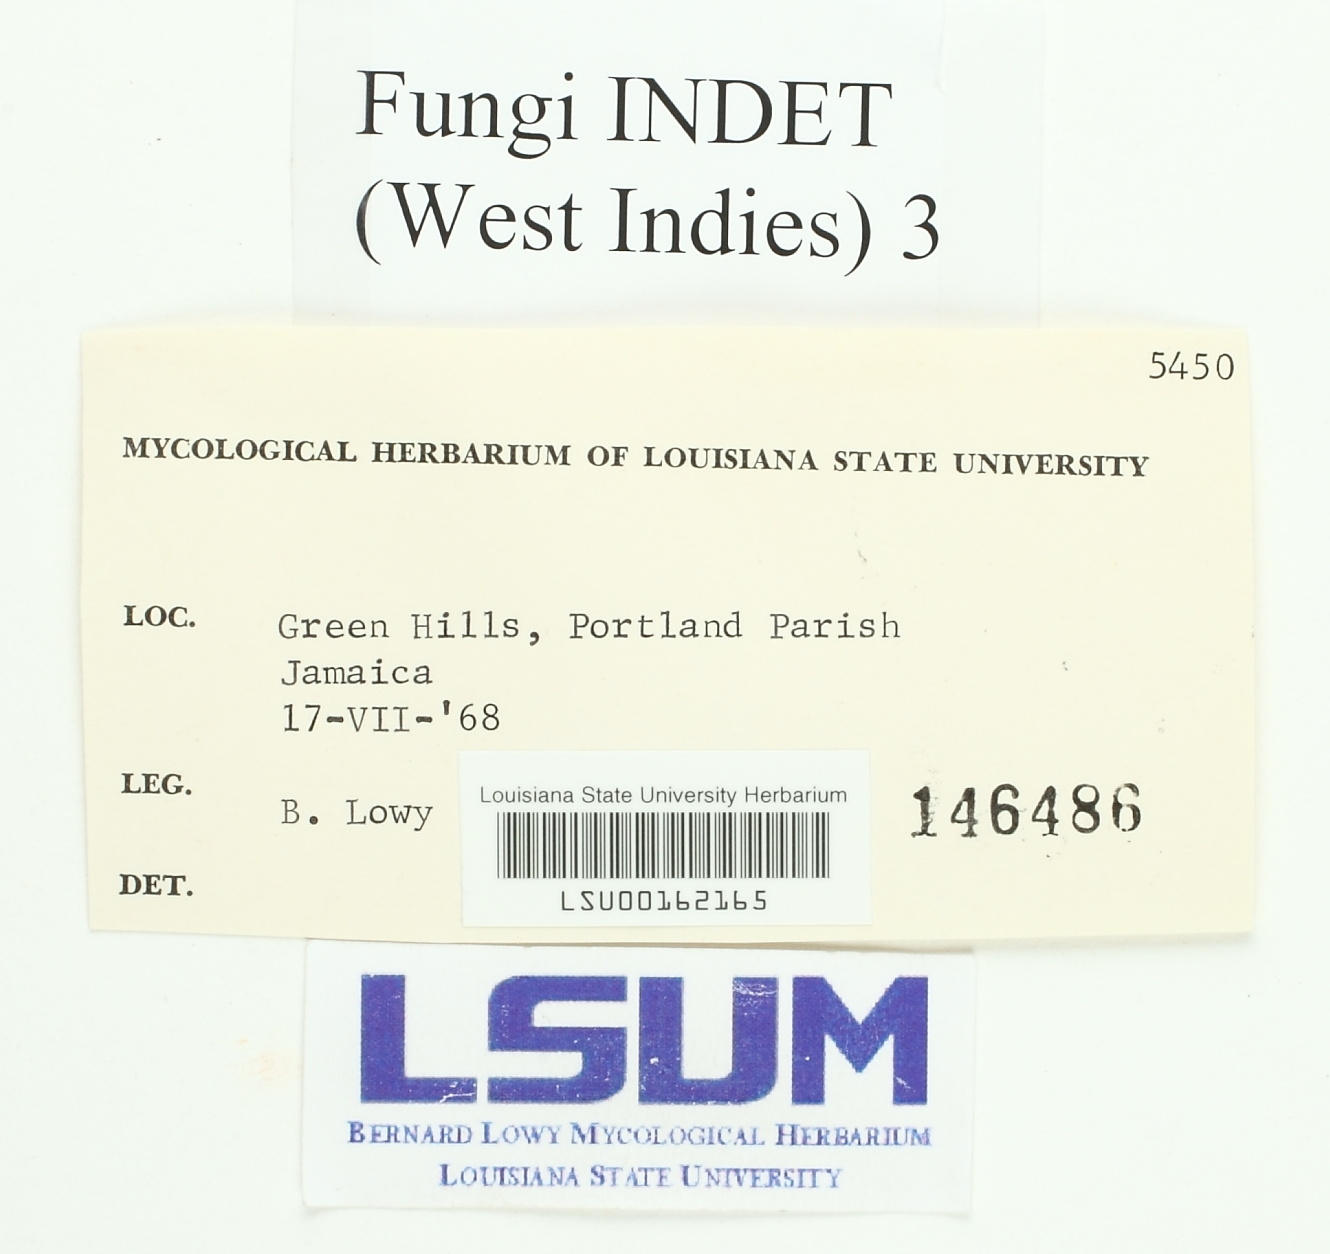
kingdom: Fungi
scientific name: Fungi
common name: Fungi
